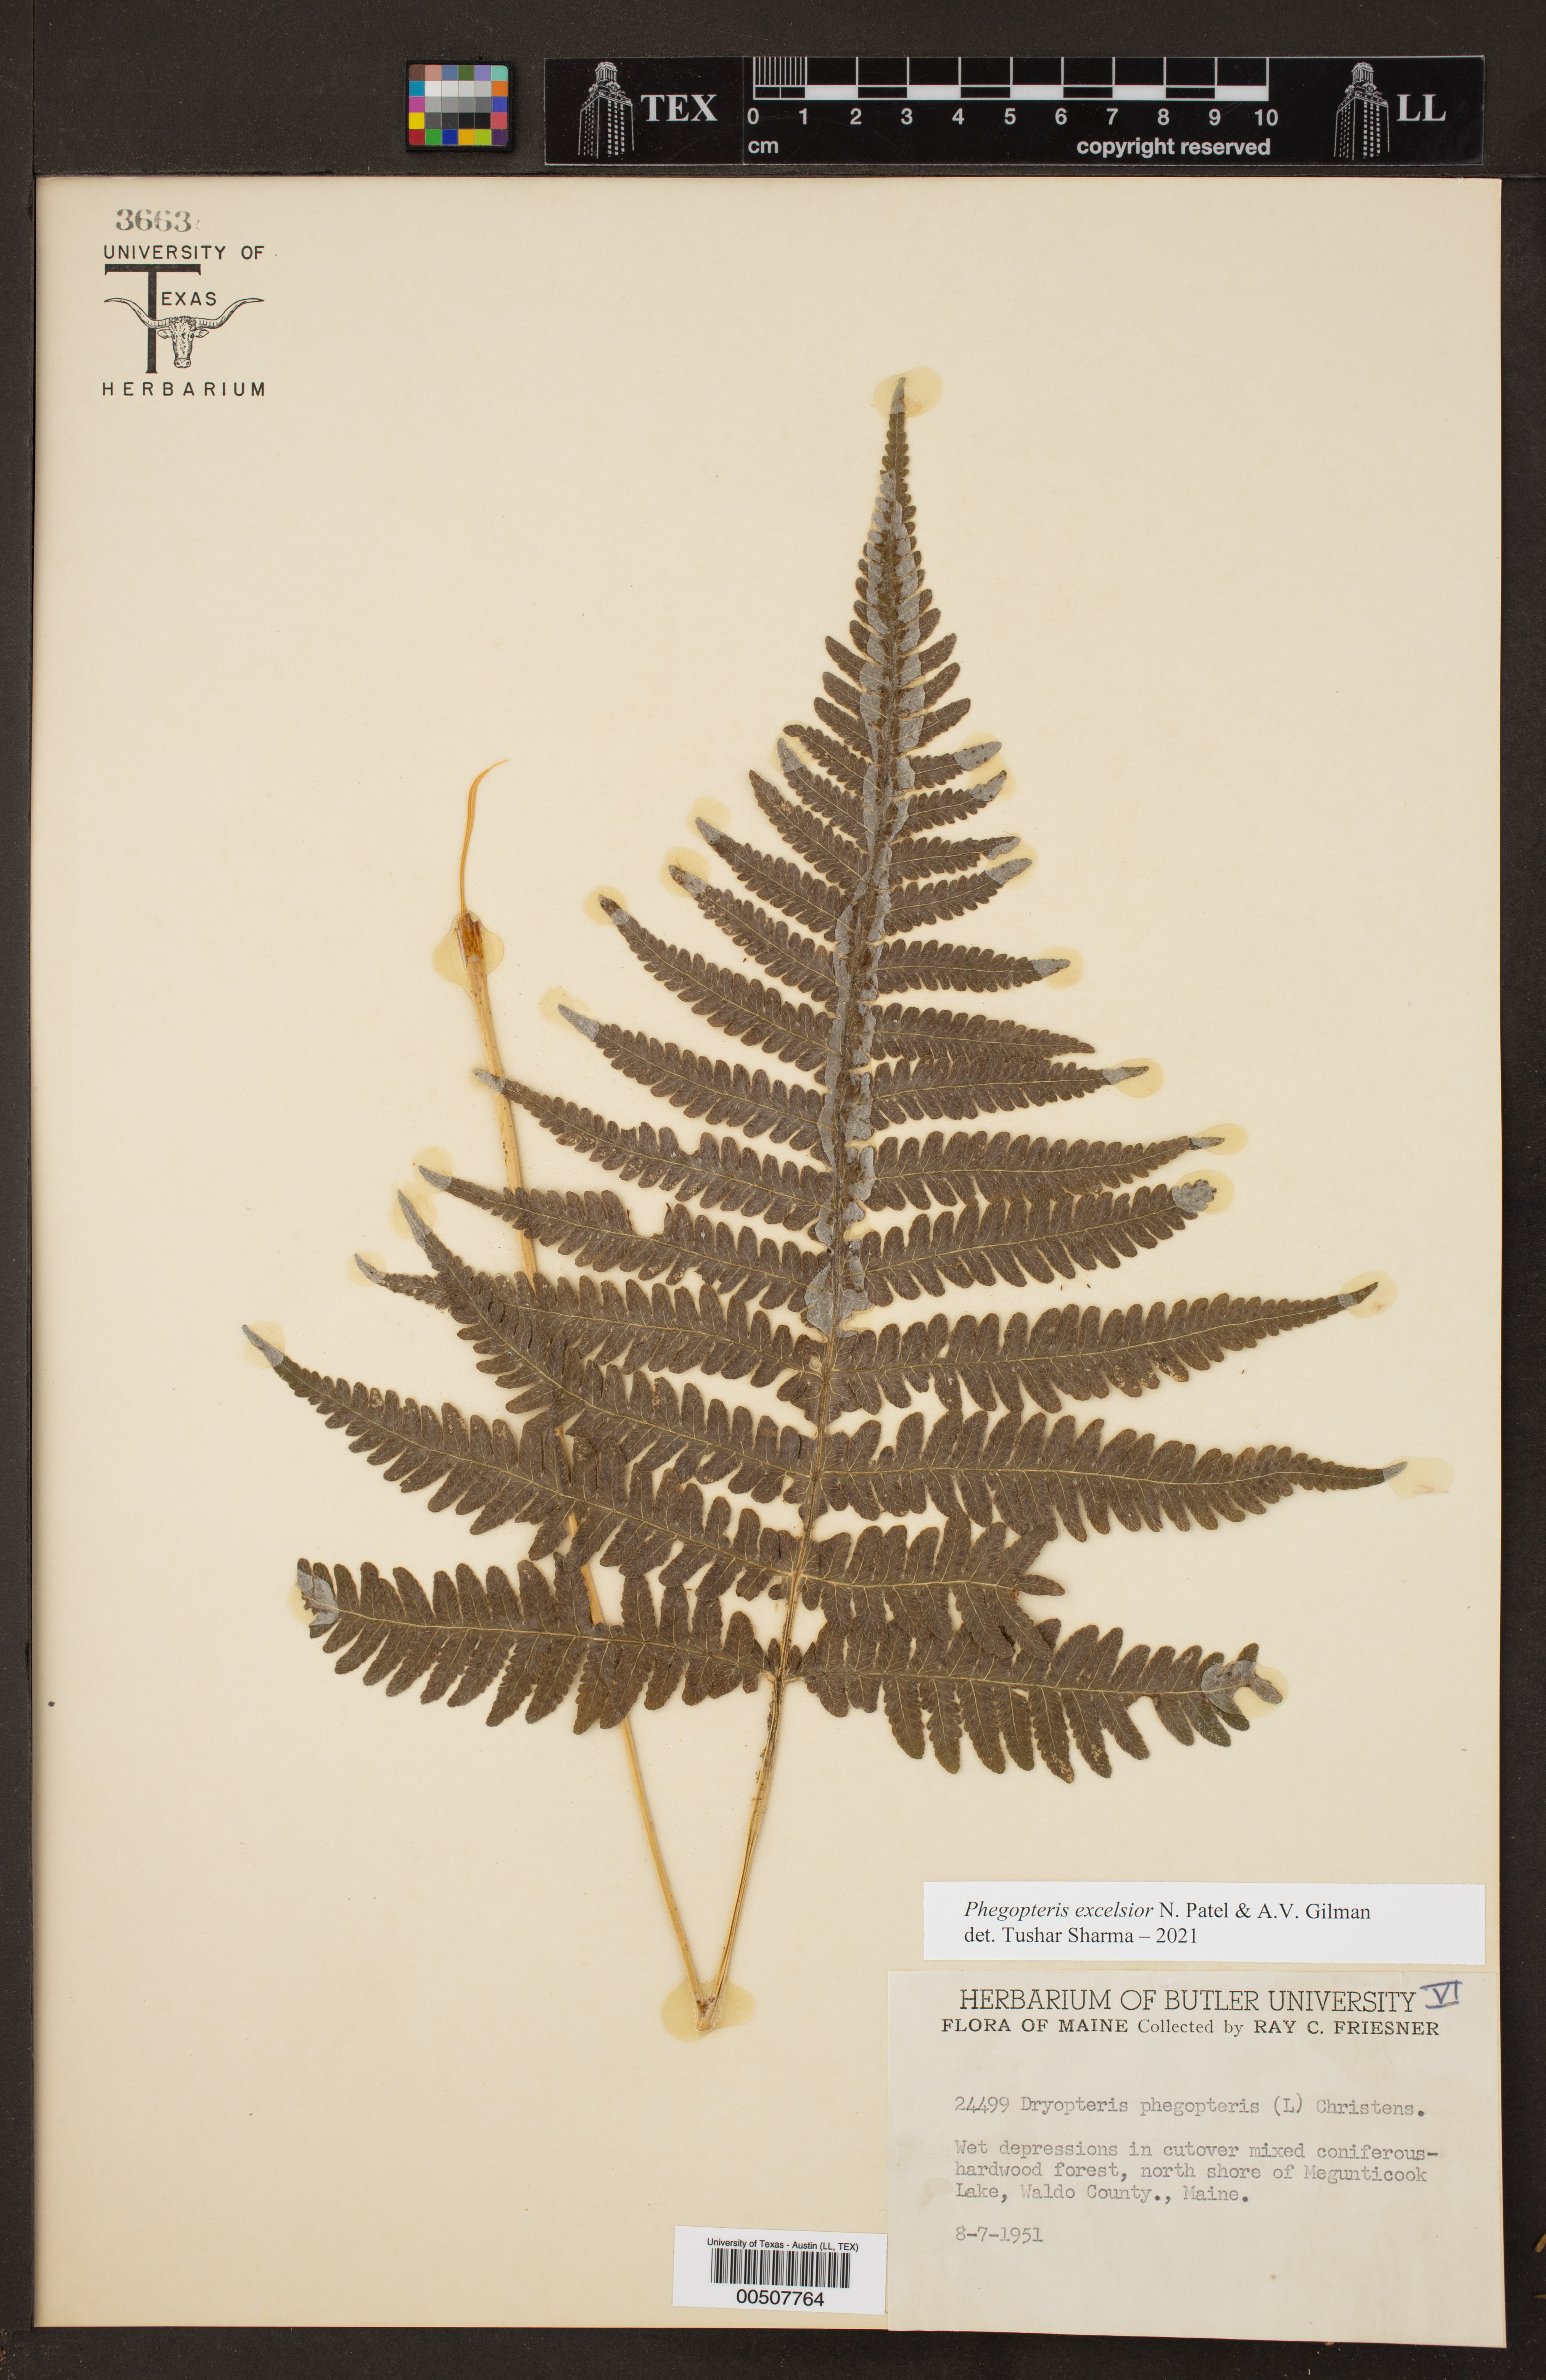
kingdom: Plantae
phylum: Tracheophyta
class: Polypodiopsida
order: Polypodiales
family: Thelypteridaceae
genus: Phegopteris
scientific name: Phegopteris excelsior
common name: Tall beech fern
